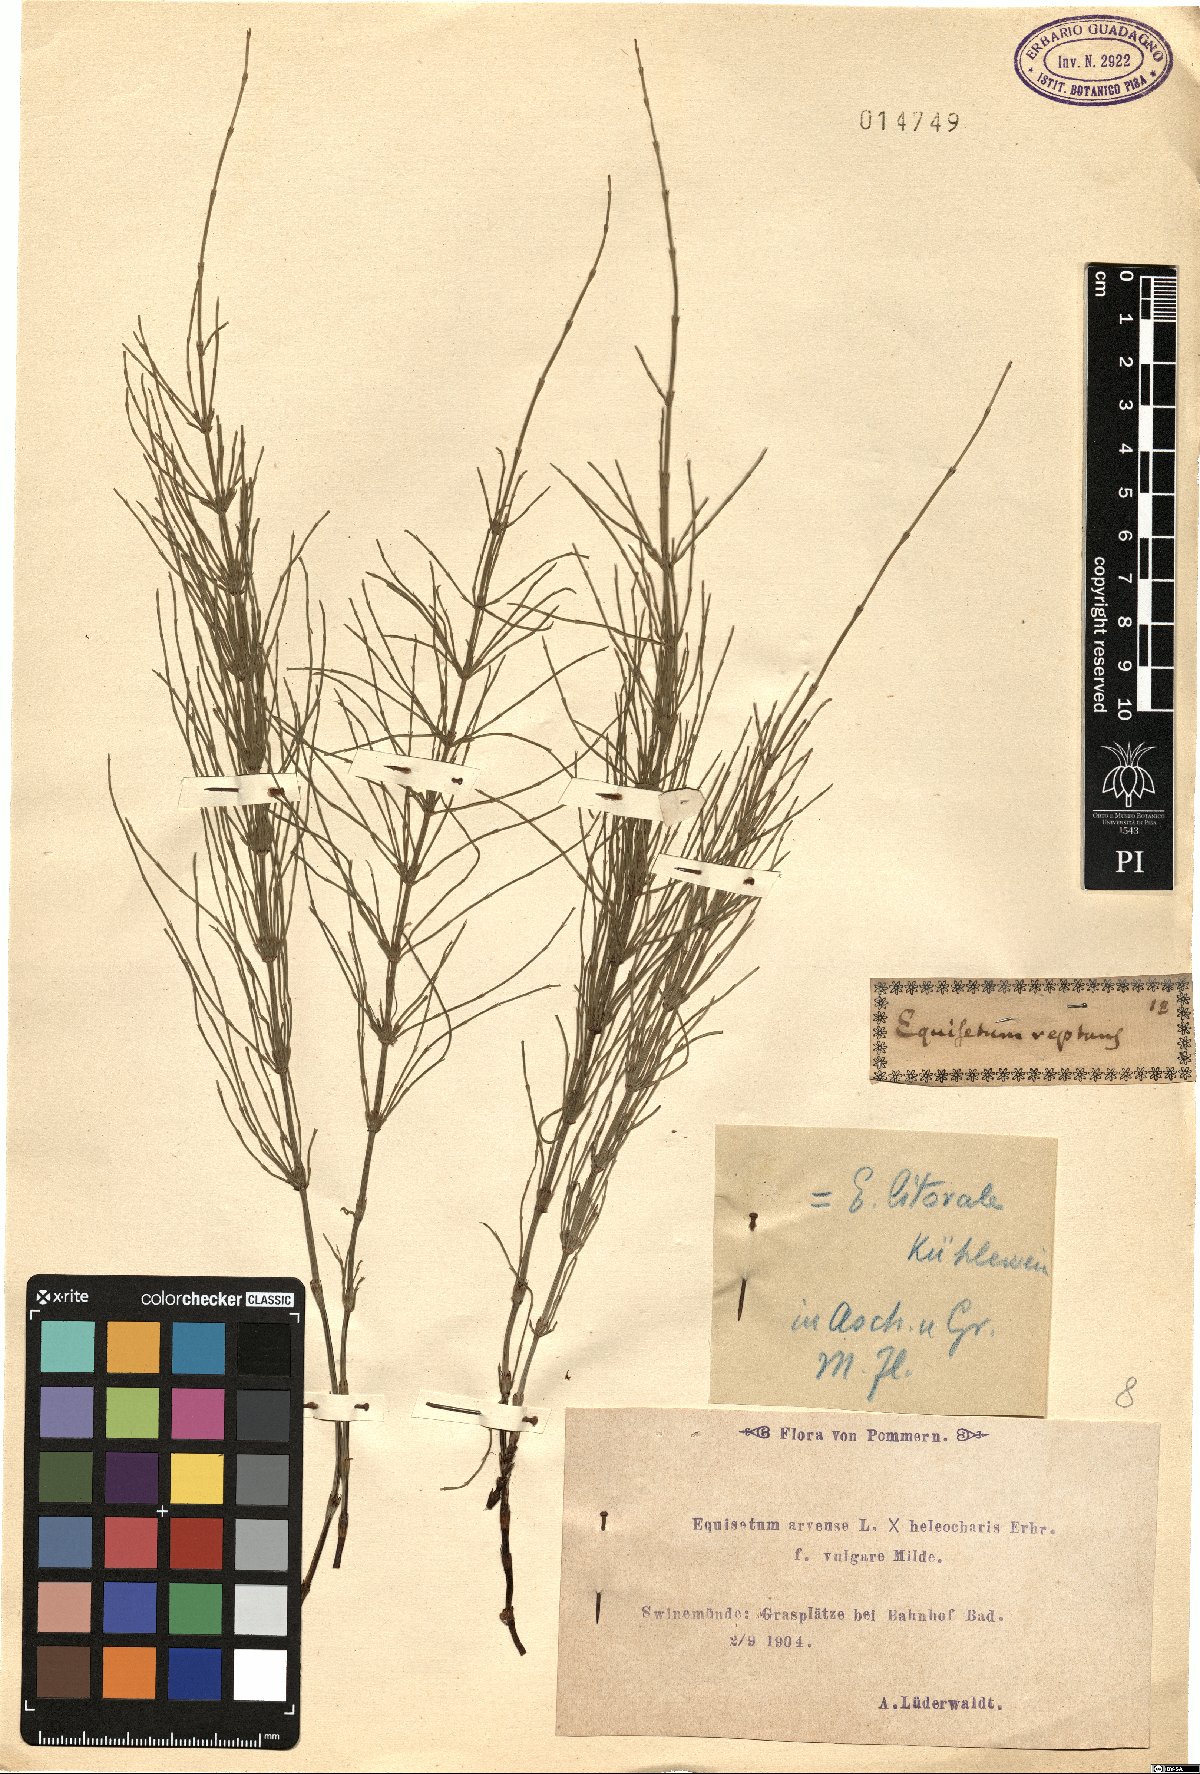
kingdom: Plantae
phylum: Tracheophyta
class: Polypodiopsida
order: Equisetales
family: Equisetaceae
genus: Equisetum
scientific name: Equisetum arvense
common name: Field horsetail
